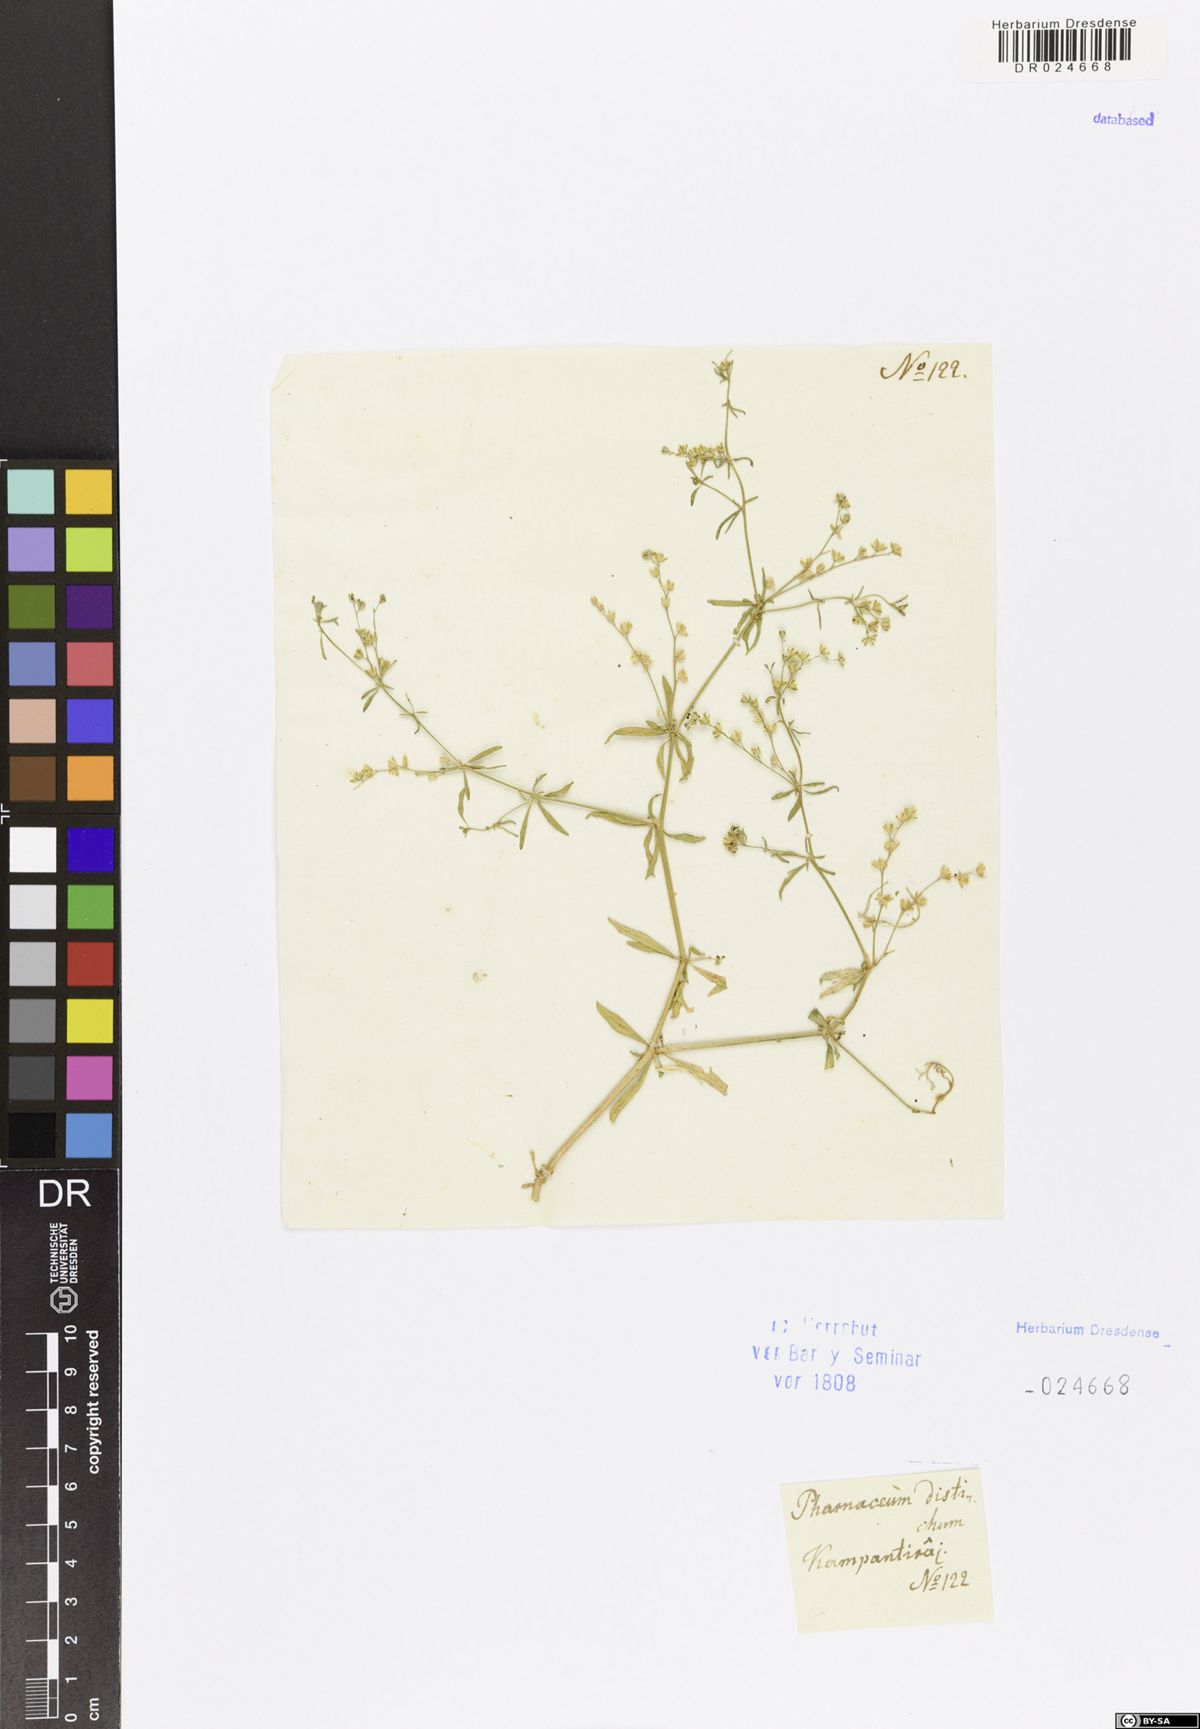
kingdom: Plantae
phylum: Tracheophyta
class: Magnoliopsida
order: Caryophyllales
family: Molluginaceae
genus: Mollugo
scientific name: Mollugo disticha
